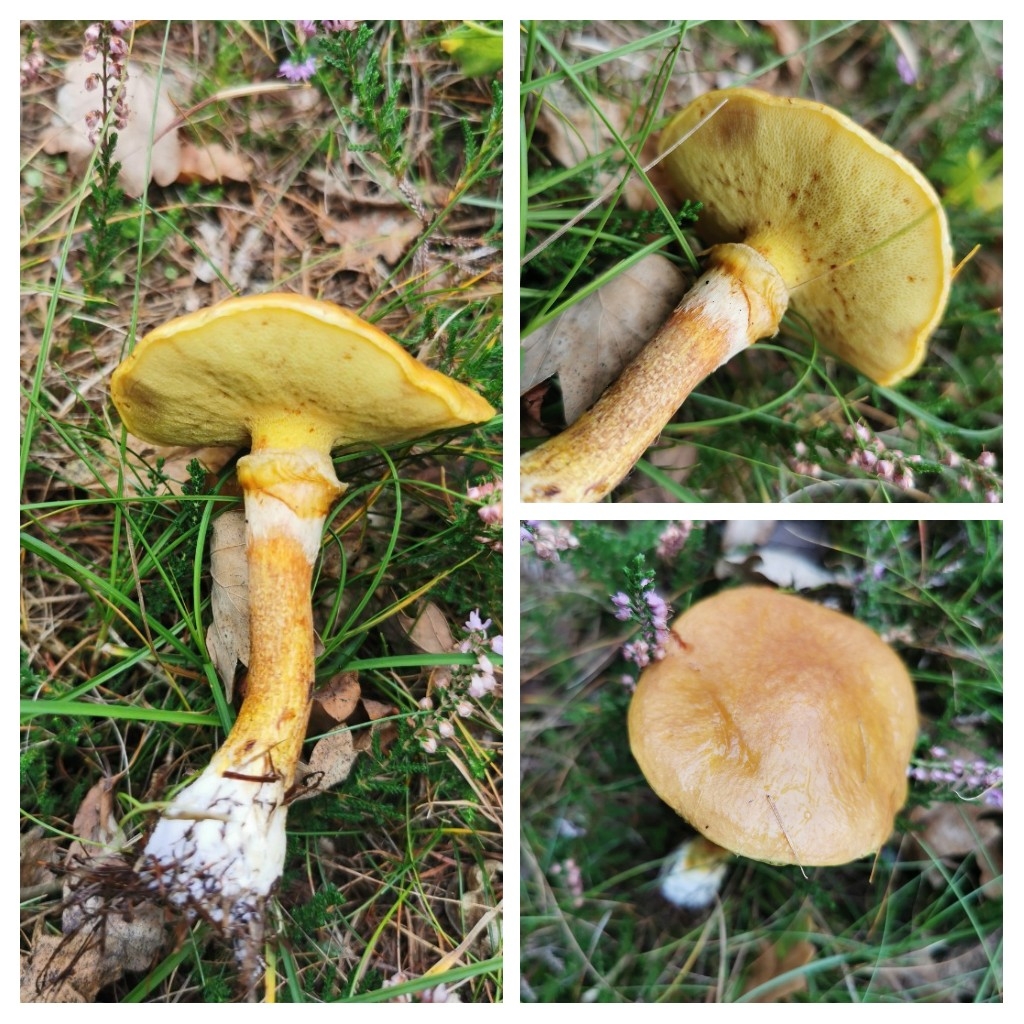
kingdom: Fungi
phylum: Basidiomycota
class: Agaricomycetes
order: Boletales
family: Suillaceae
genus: Suillus
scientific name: Suillus grevillei
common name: lærke-slimrørhat
